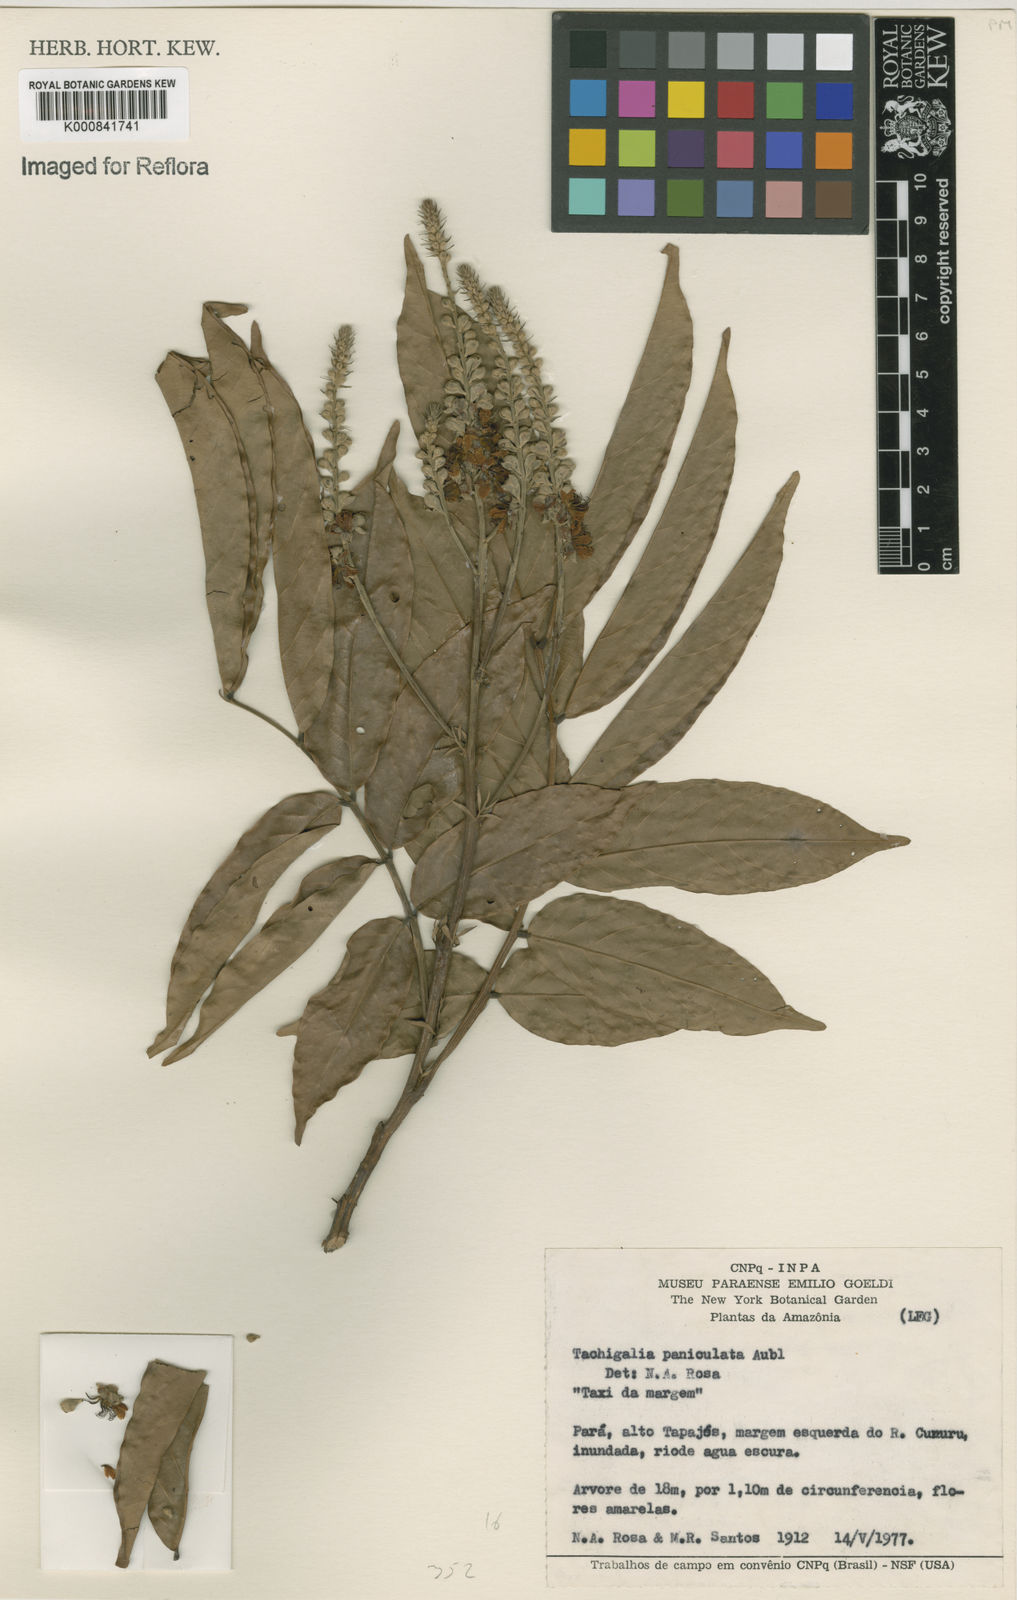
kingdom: Plantae
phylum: Tracheophyta
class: Magnoliopsida
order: Fabales
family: Fabaceae
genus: Tachigali
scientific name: Tachigali paniculata
